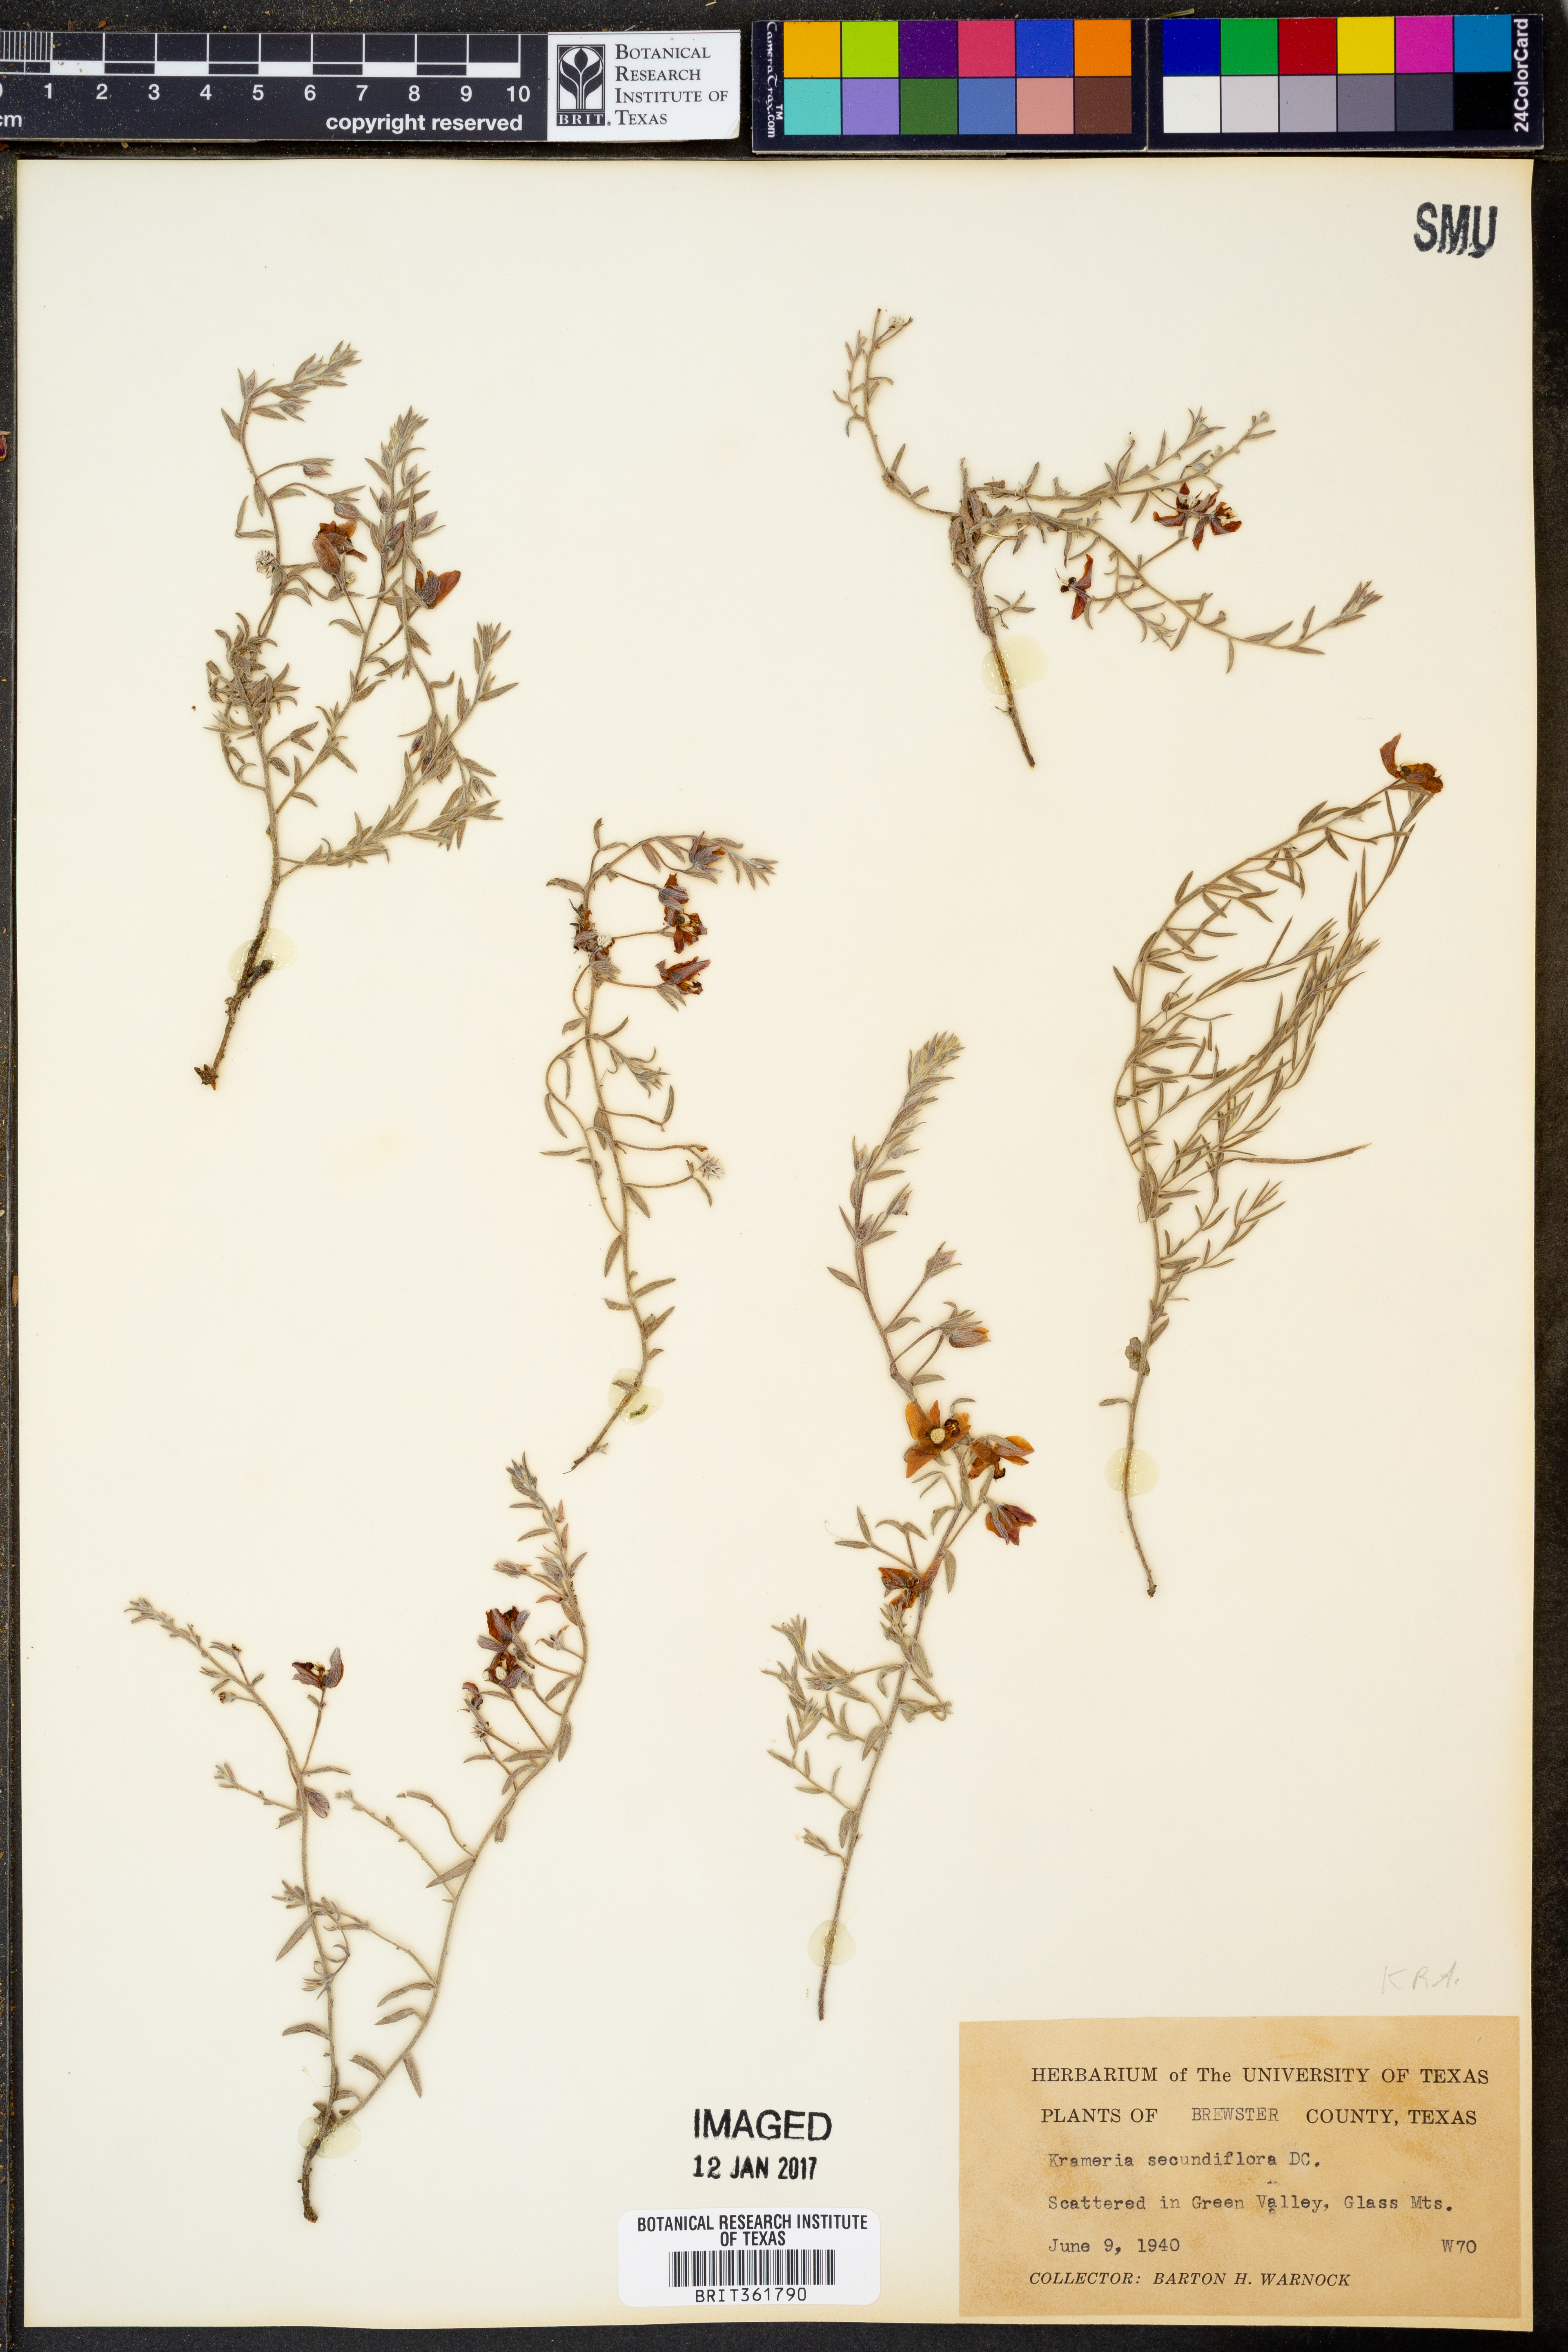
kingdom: Plantae
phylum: Tracheophyta
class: Magnoliopsida
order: Zygophyllales
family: Krameriaceae
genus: Krameria
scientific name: Krameria secundiflora
